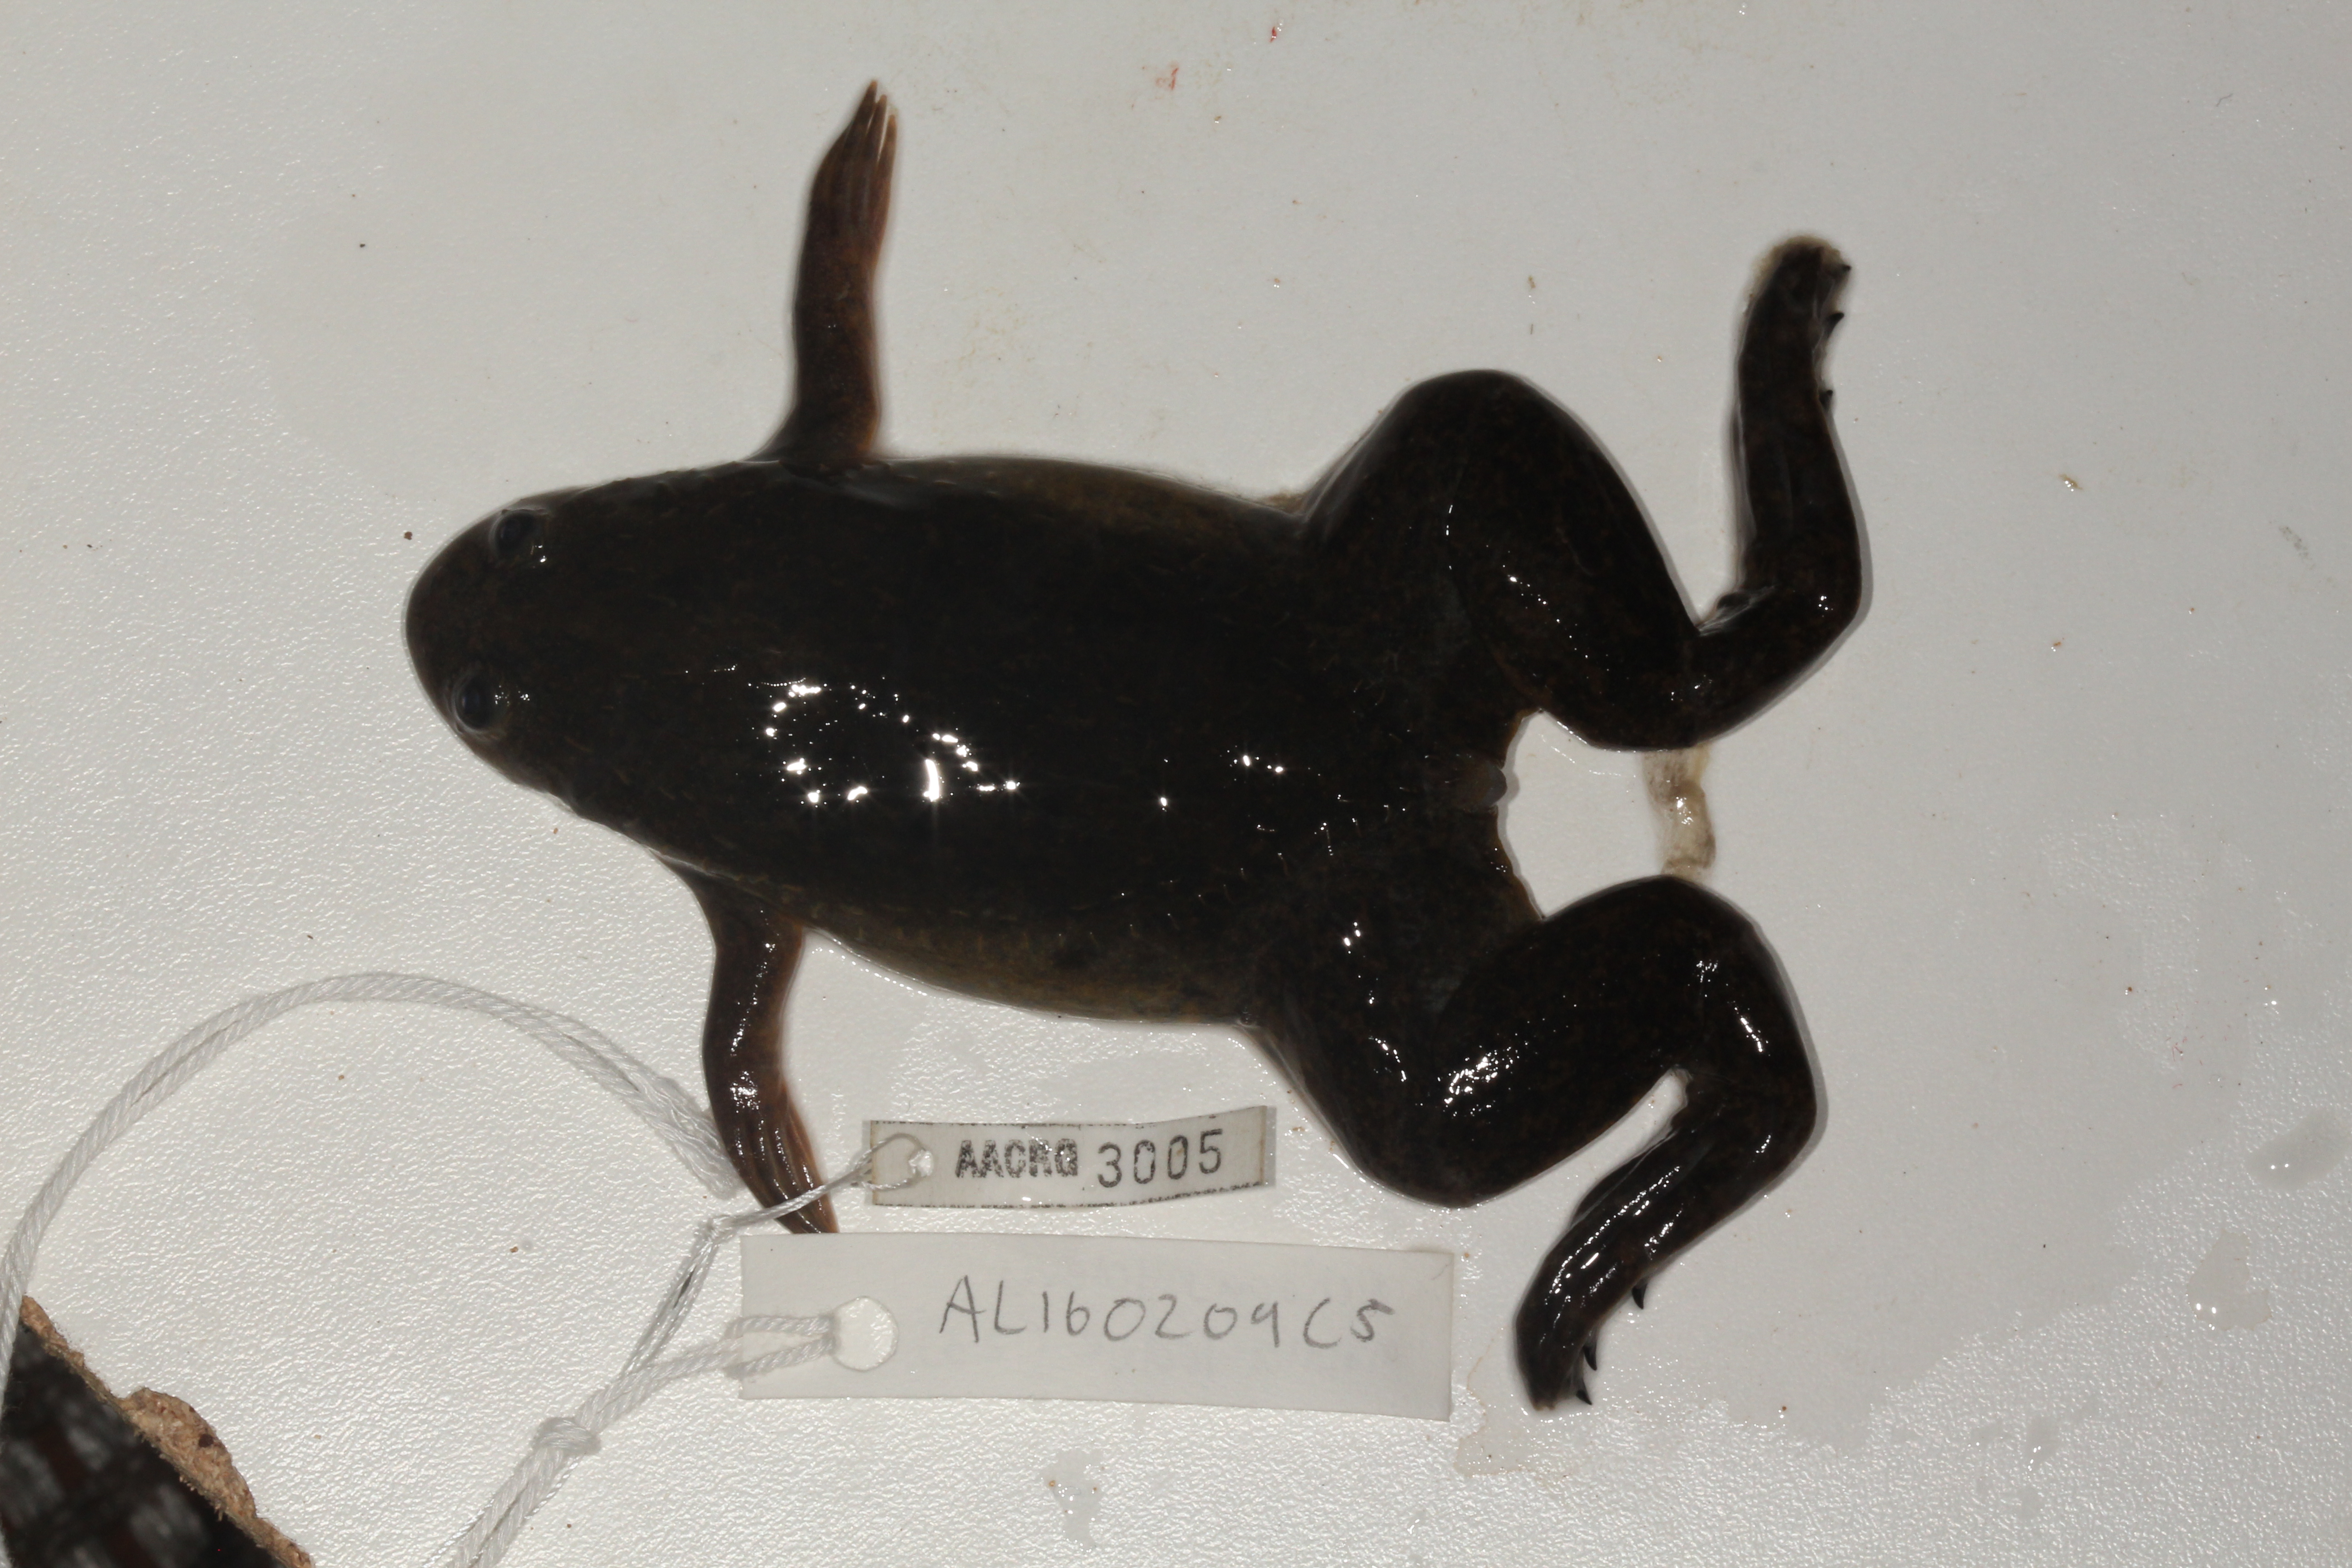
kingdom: Animalia
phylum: Chordata
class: Amphibia
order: Anura
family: Pipidae
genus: Xenopus
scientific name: Xenopus laevis
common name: African clawed frog
